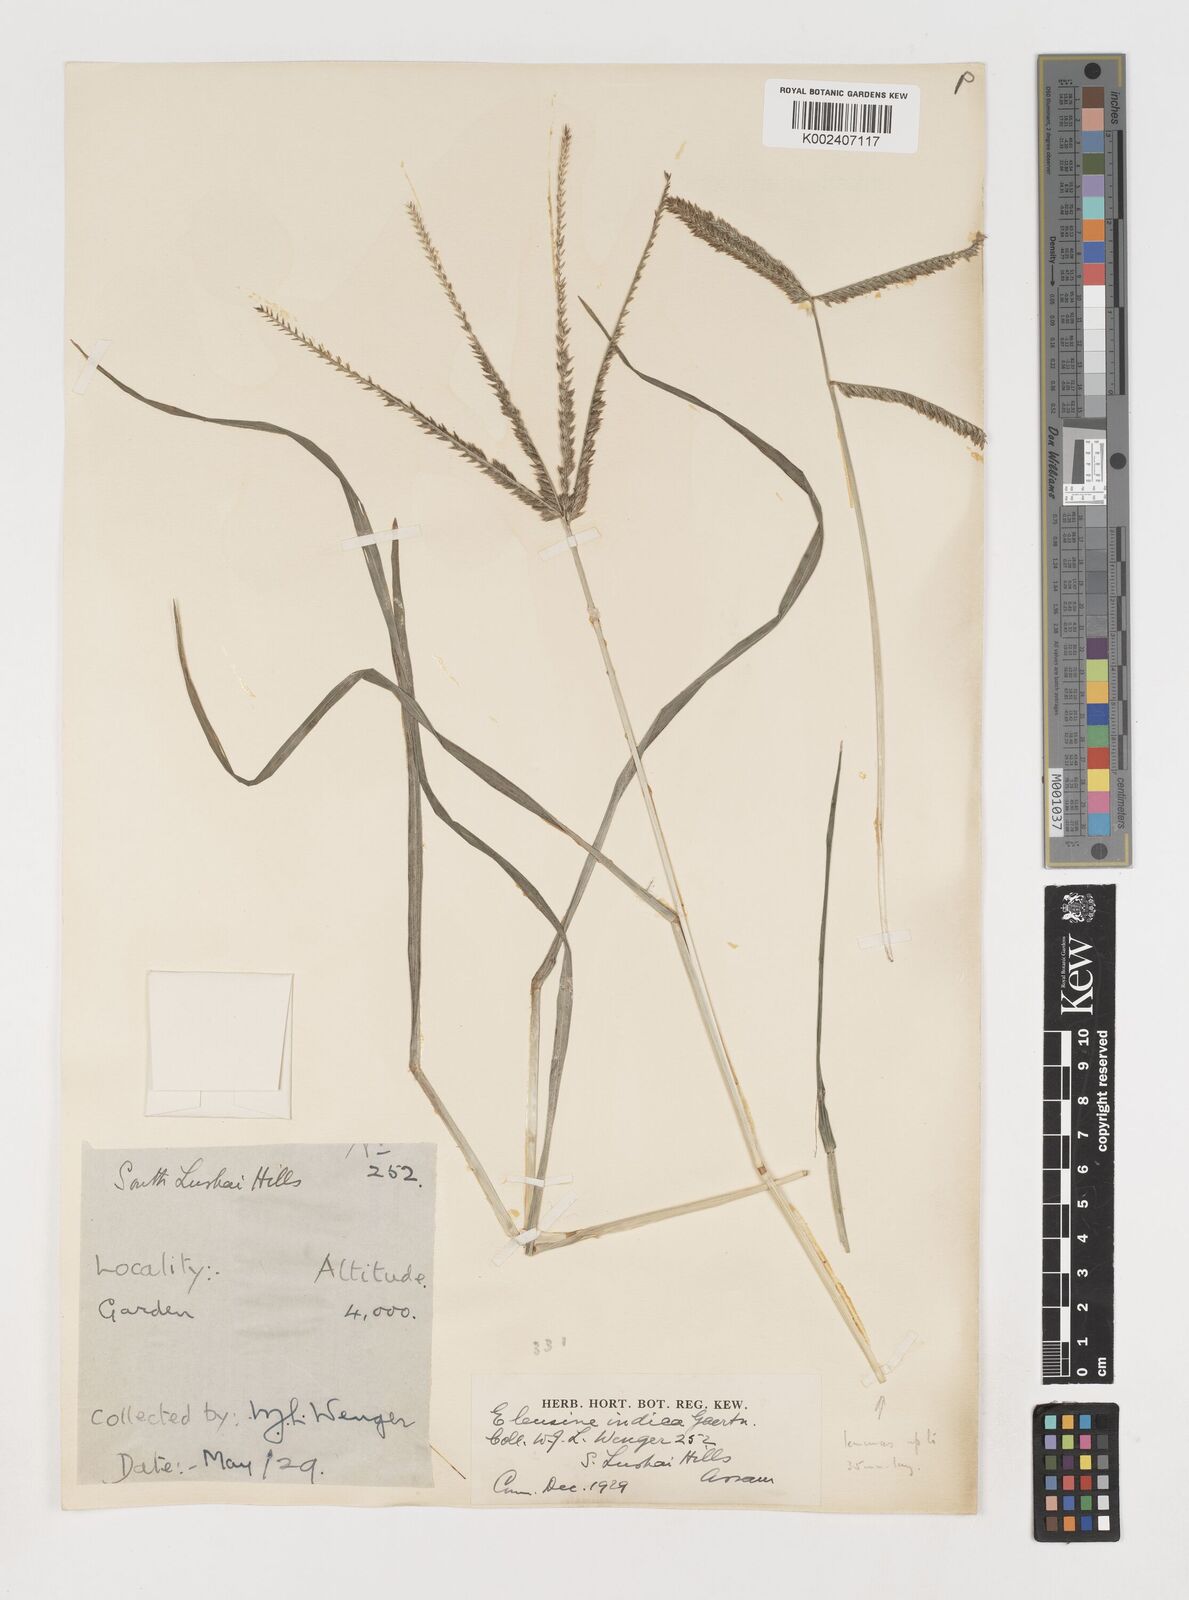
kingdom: Plantae
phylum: Tracheophyta
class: Liliopsida
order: Poales
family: Poaceae
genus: Eleusine
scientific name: Eleusine indica
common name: Yard-grass
